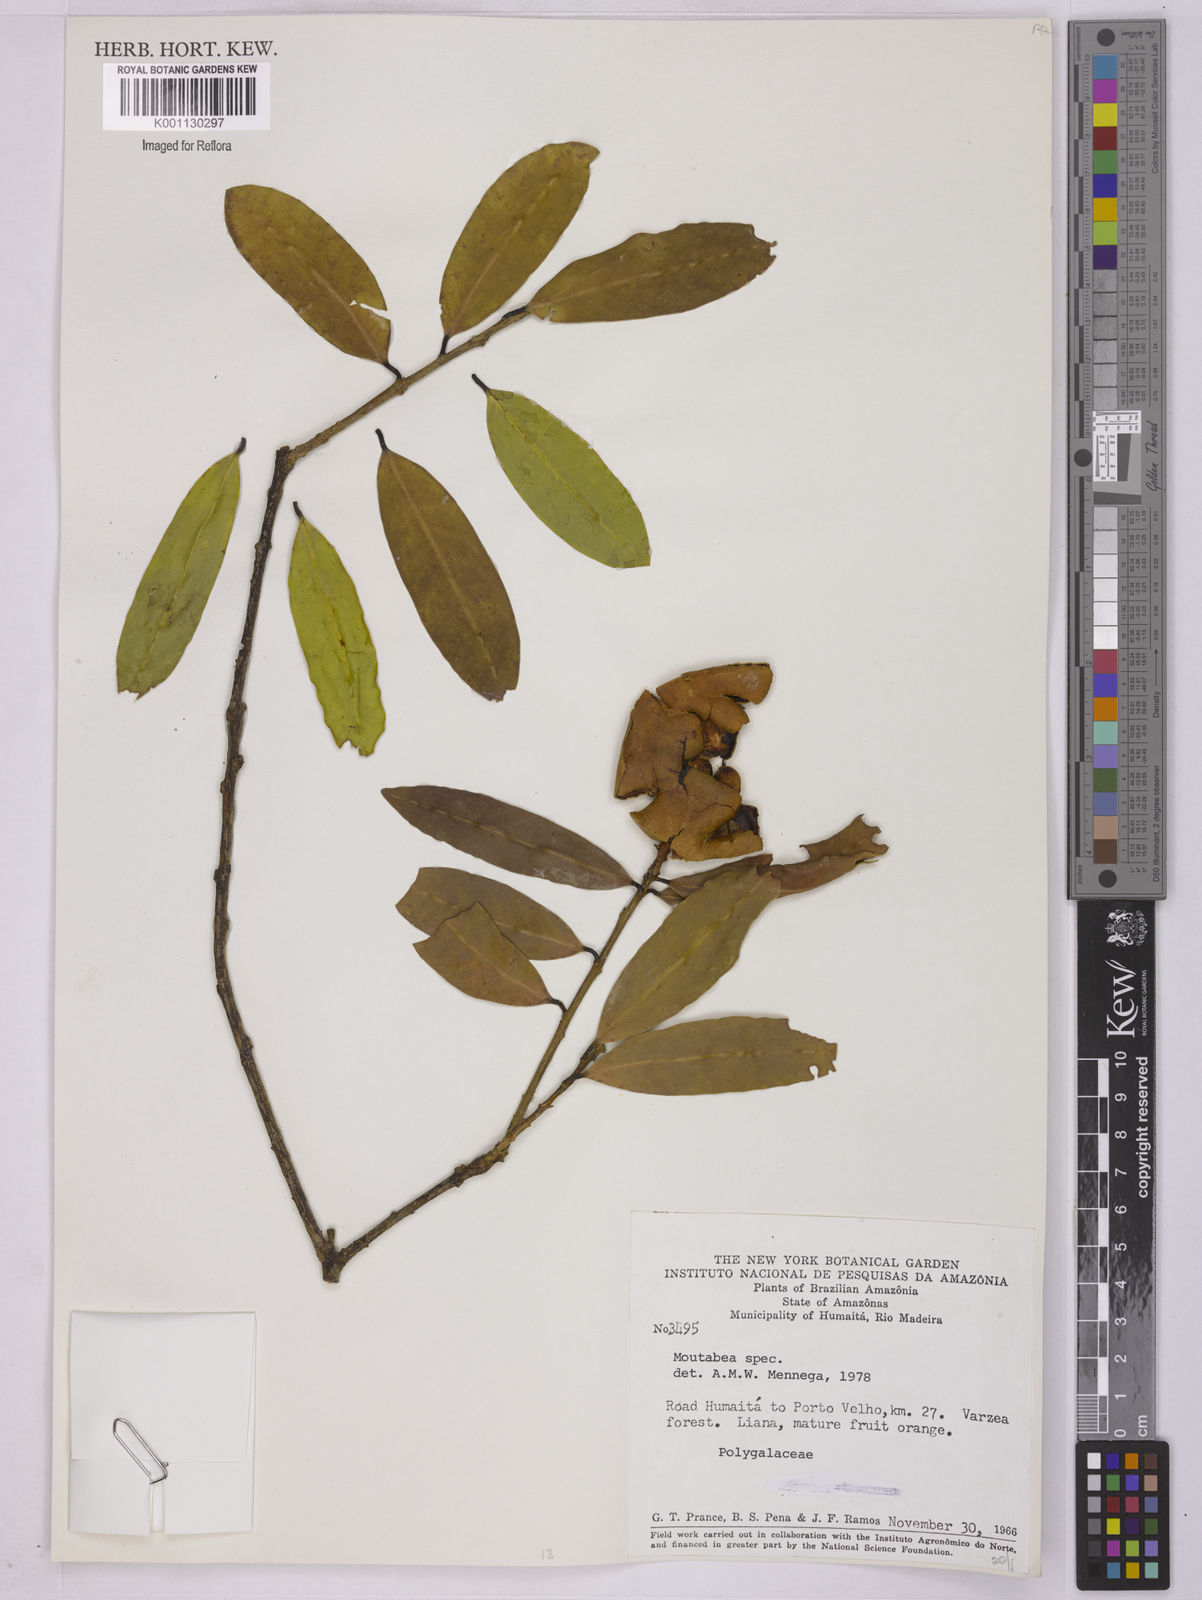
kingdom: Plantae
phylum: Tracheophyta
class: Magnoliopsida
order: Fabales
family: Polygalaceae
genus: Moutabea
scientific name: Moutabea
